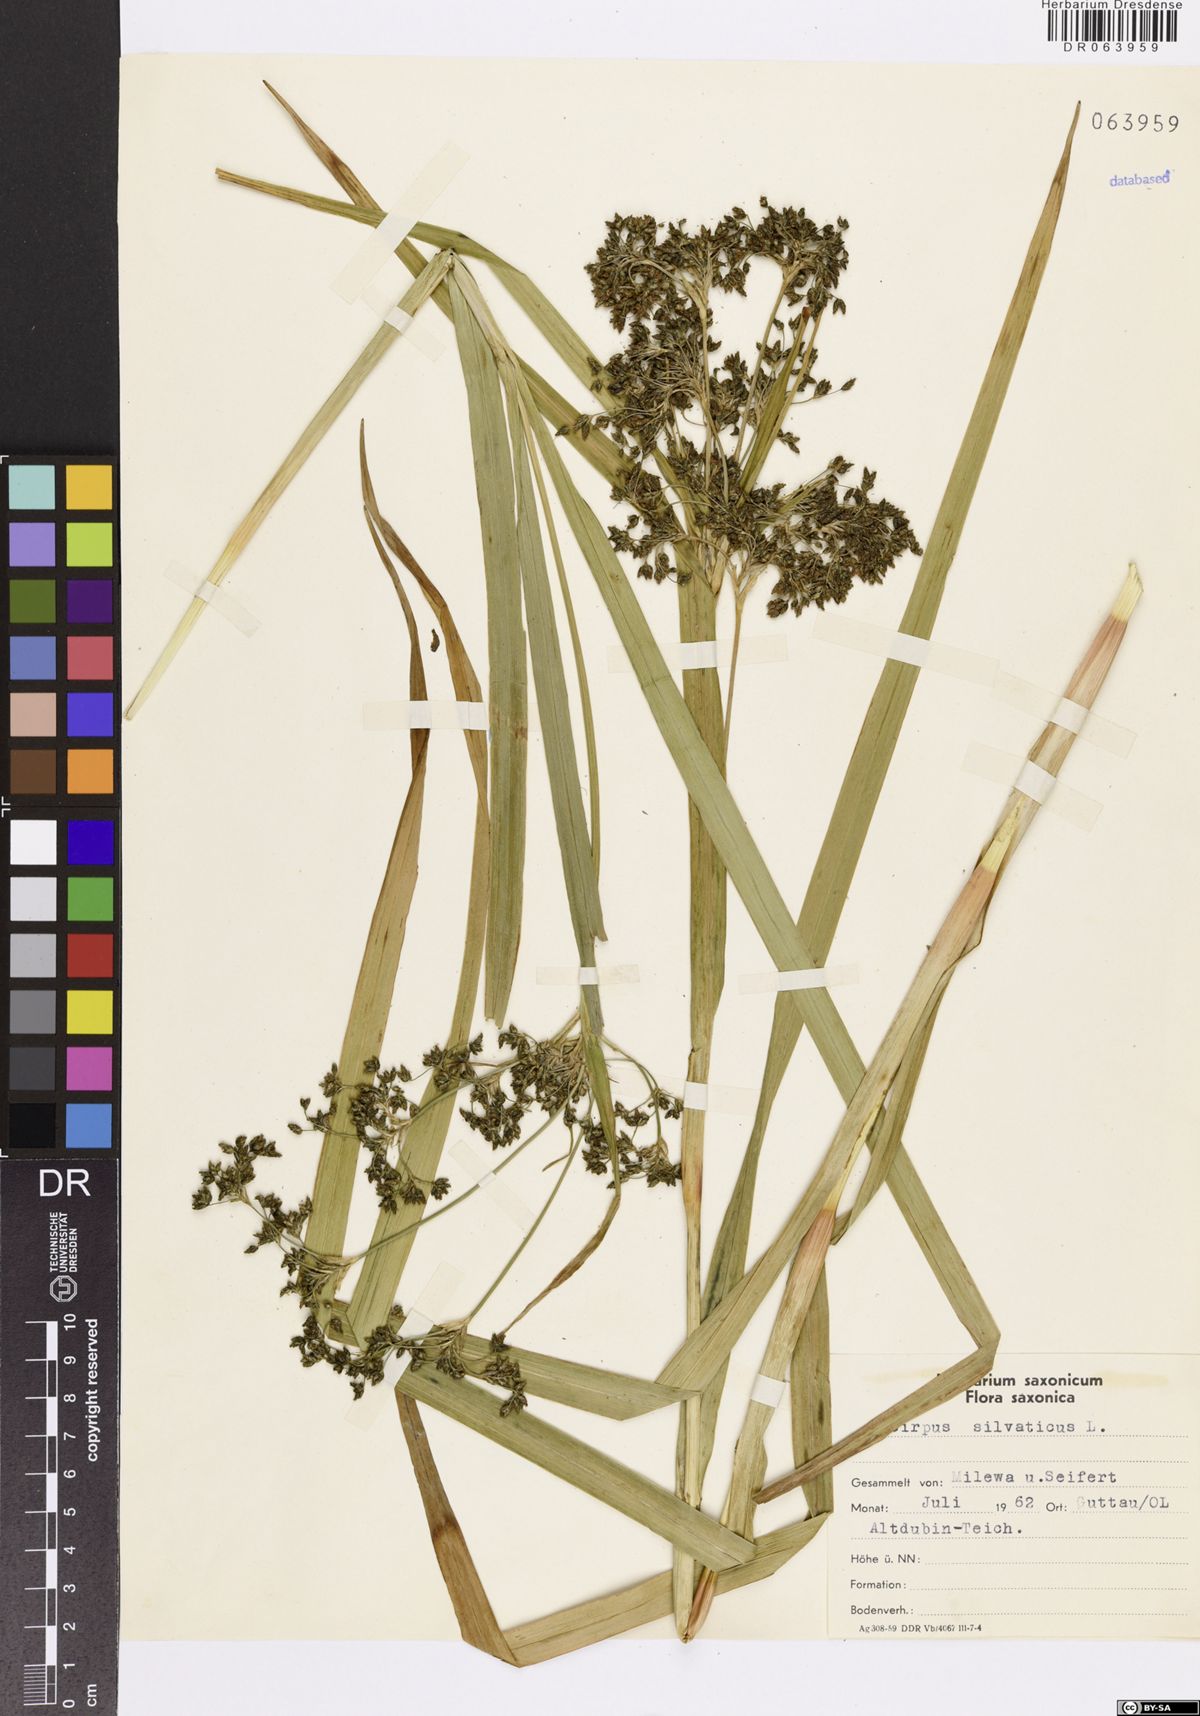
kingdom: Plantae
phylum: Tracheophyta
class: Liliopsida
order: Poales
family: Cyperaceae
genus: Scirpus
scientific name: Scirpus sylvaticus
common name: Wood club-rush
